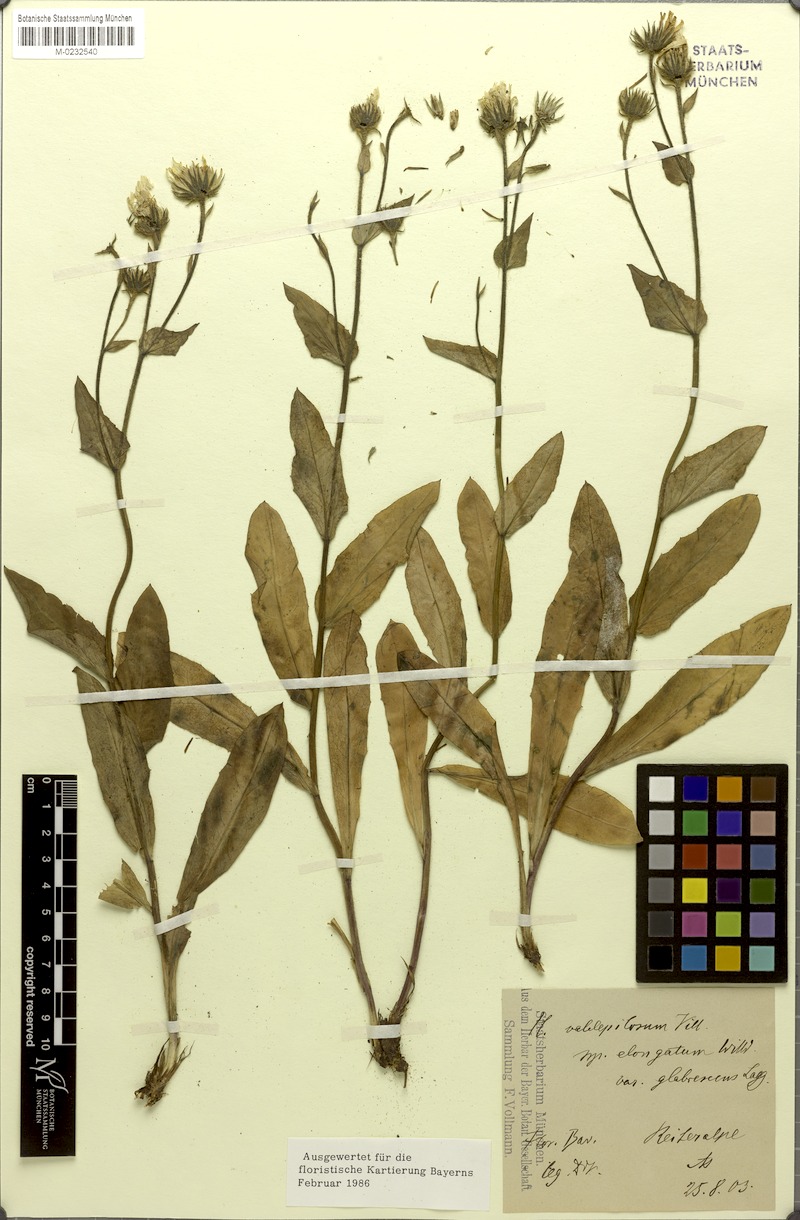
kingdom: Plantae
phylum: Tracheophyta
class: Magnoliopsida
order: Asterales
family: Asteraceae
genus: Hieracium
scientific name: Hieracium valdepilosum
